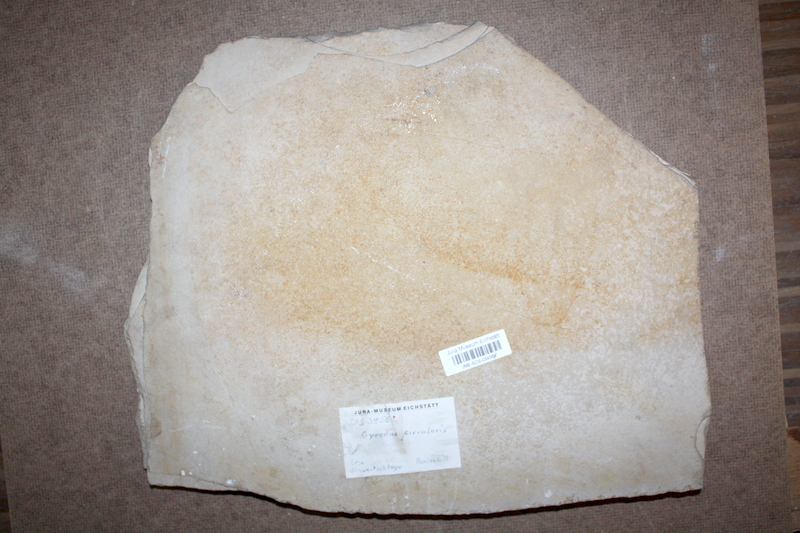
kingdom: Animalia
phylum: Chordata
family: Gyrodontidae
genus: Gyrodus
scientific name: Gyrodus circularis
